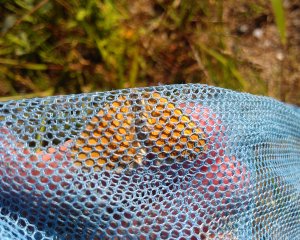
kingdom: Animalia
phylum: Arthropoda
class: Insecta
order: Lepidoptera
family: Nymphalidae
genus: Coenonympha
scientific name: Coenonympha tullia
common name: Large Heath
